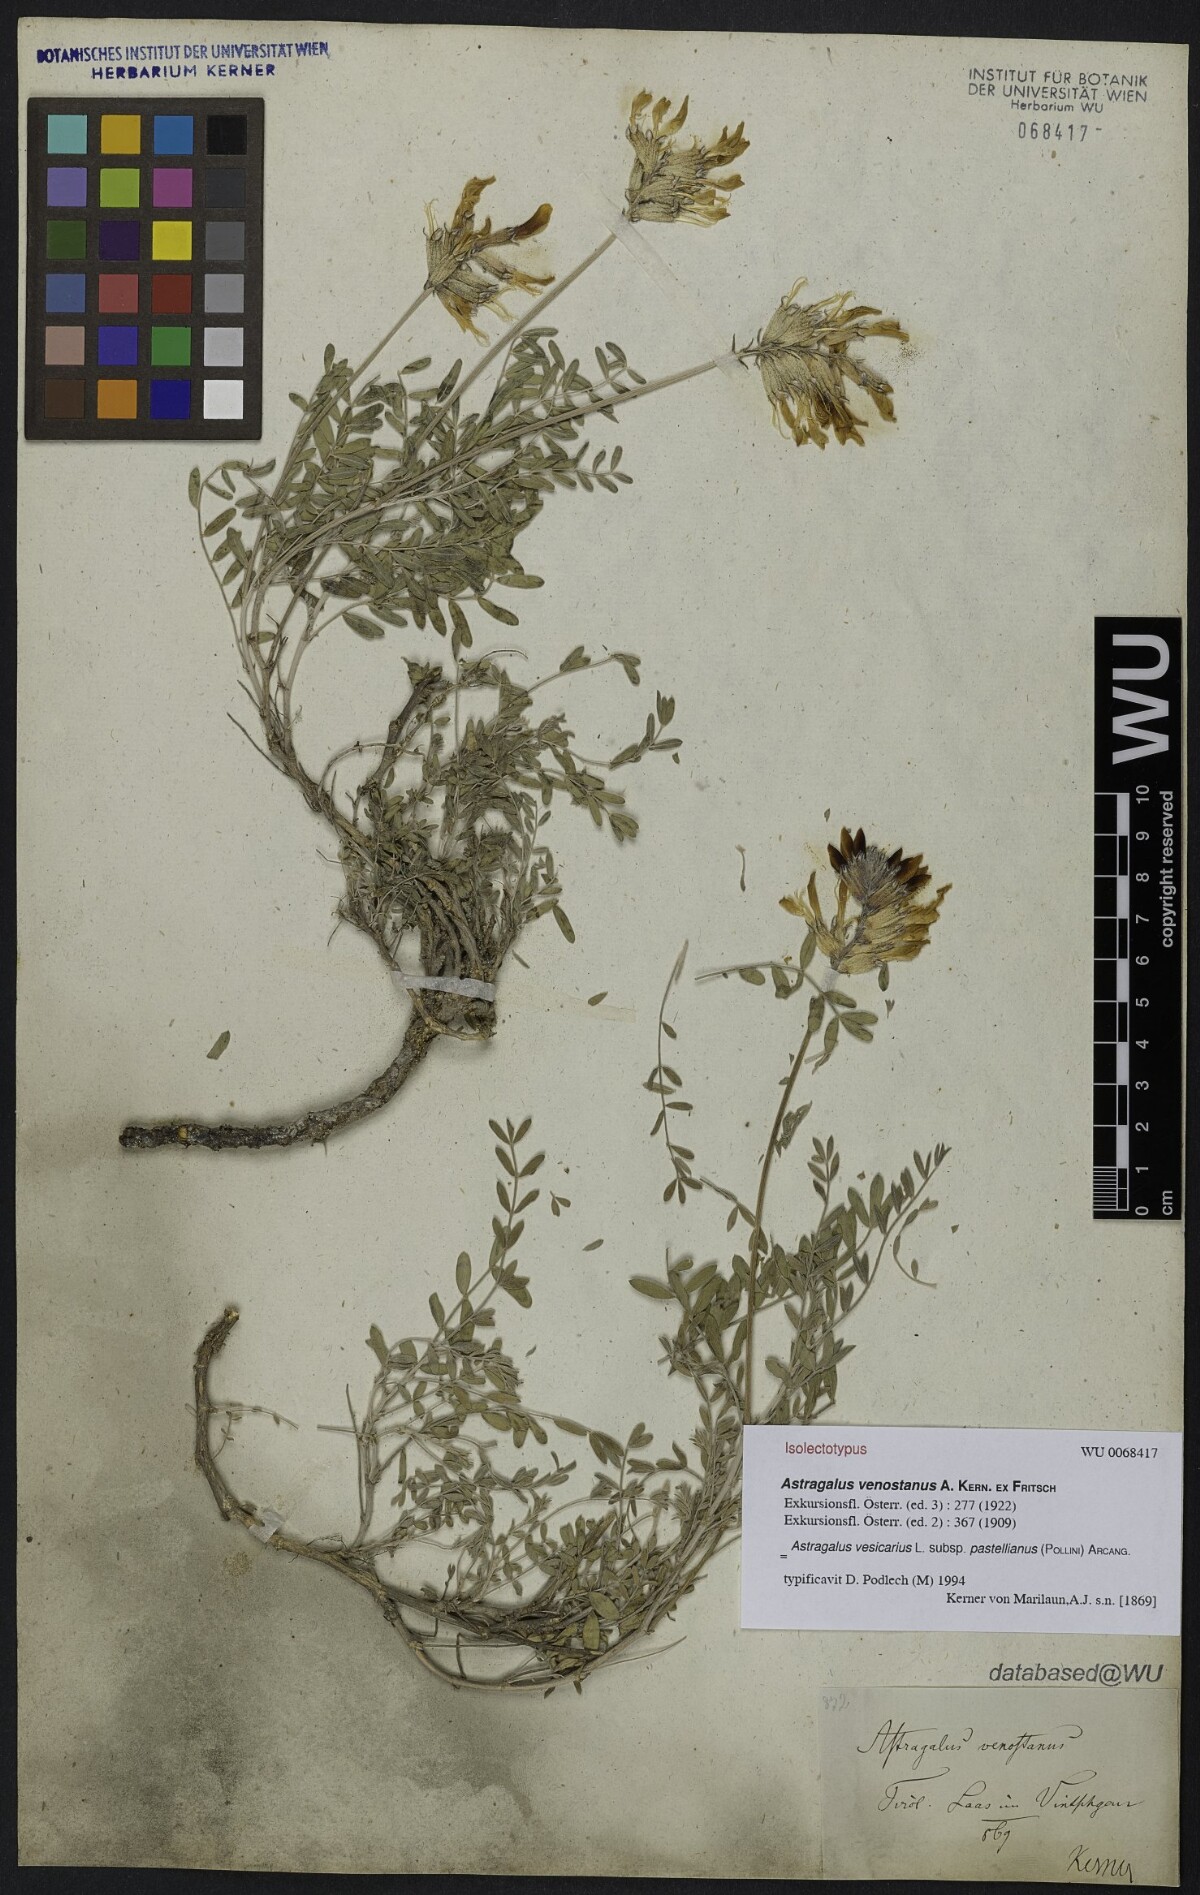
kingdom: Plantae
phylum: Tracheophyta
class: Magnoliopsida
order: Fabales
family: Fabaceae
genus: Astragalus
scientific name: Astragalus vesicarius
